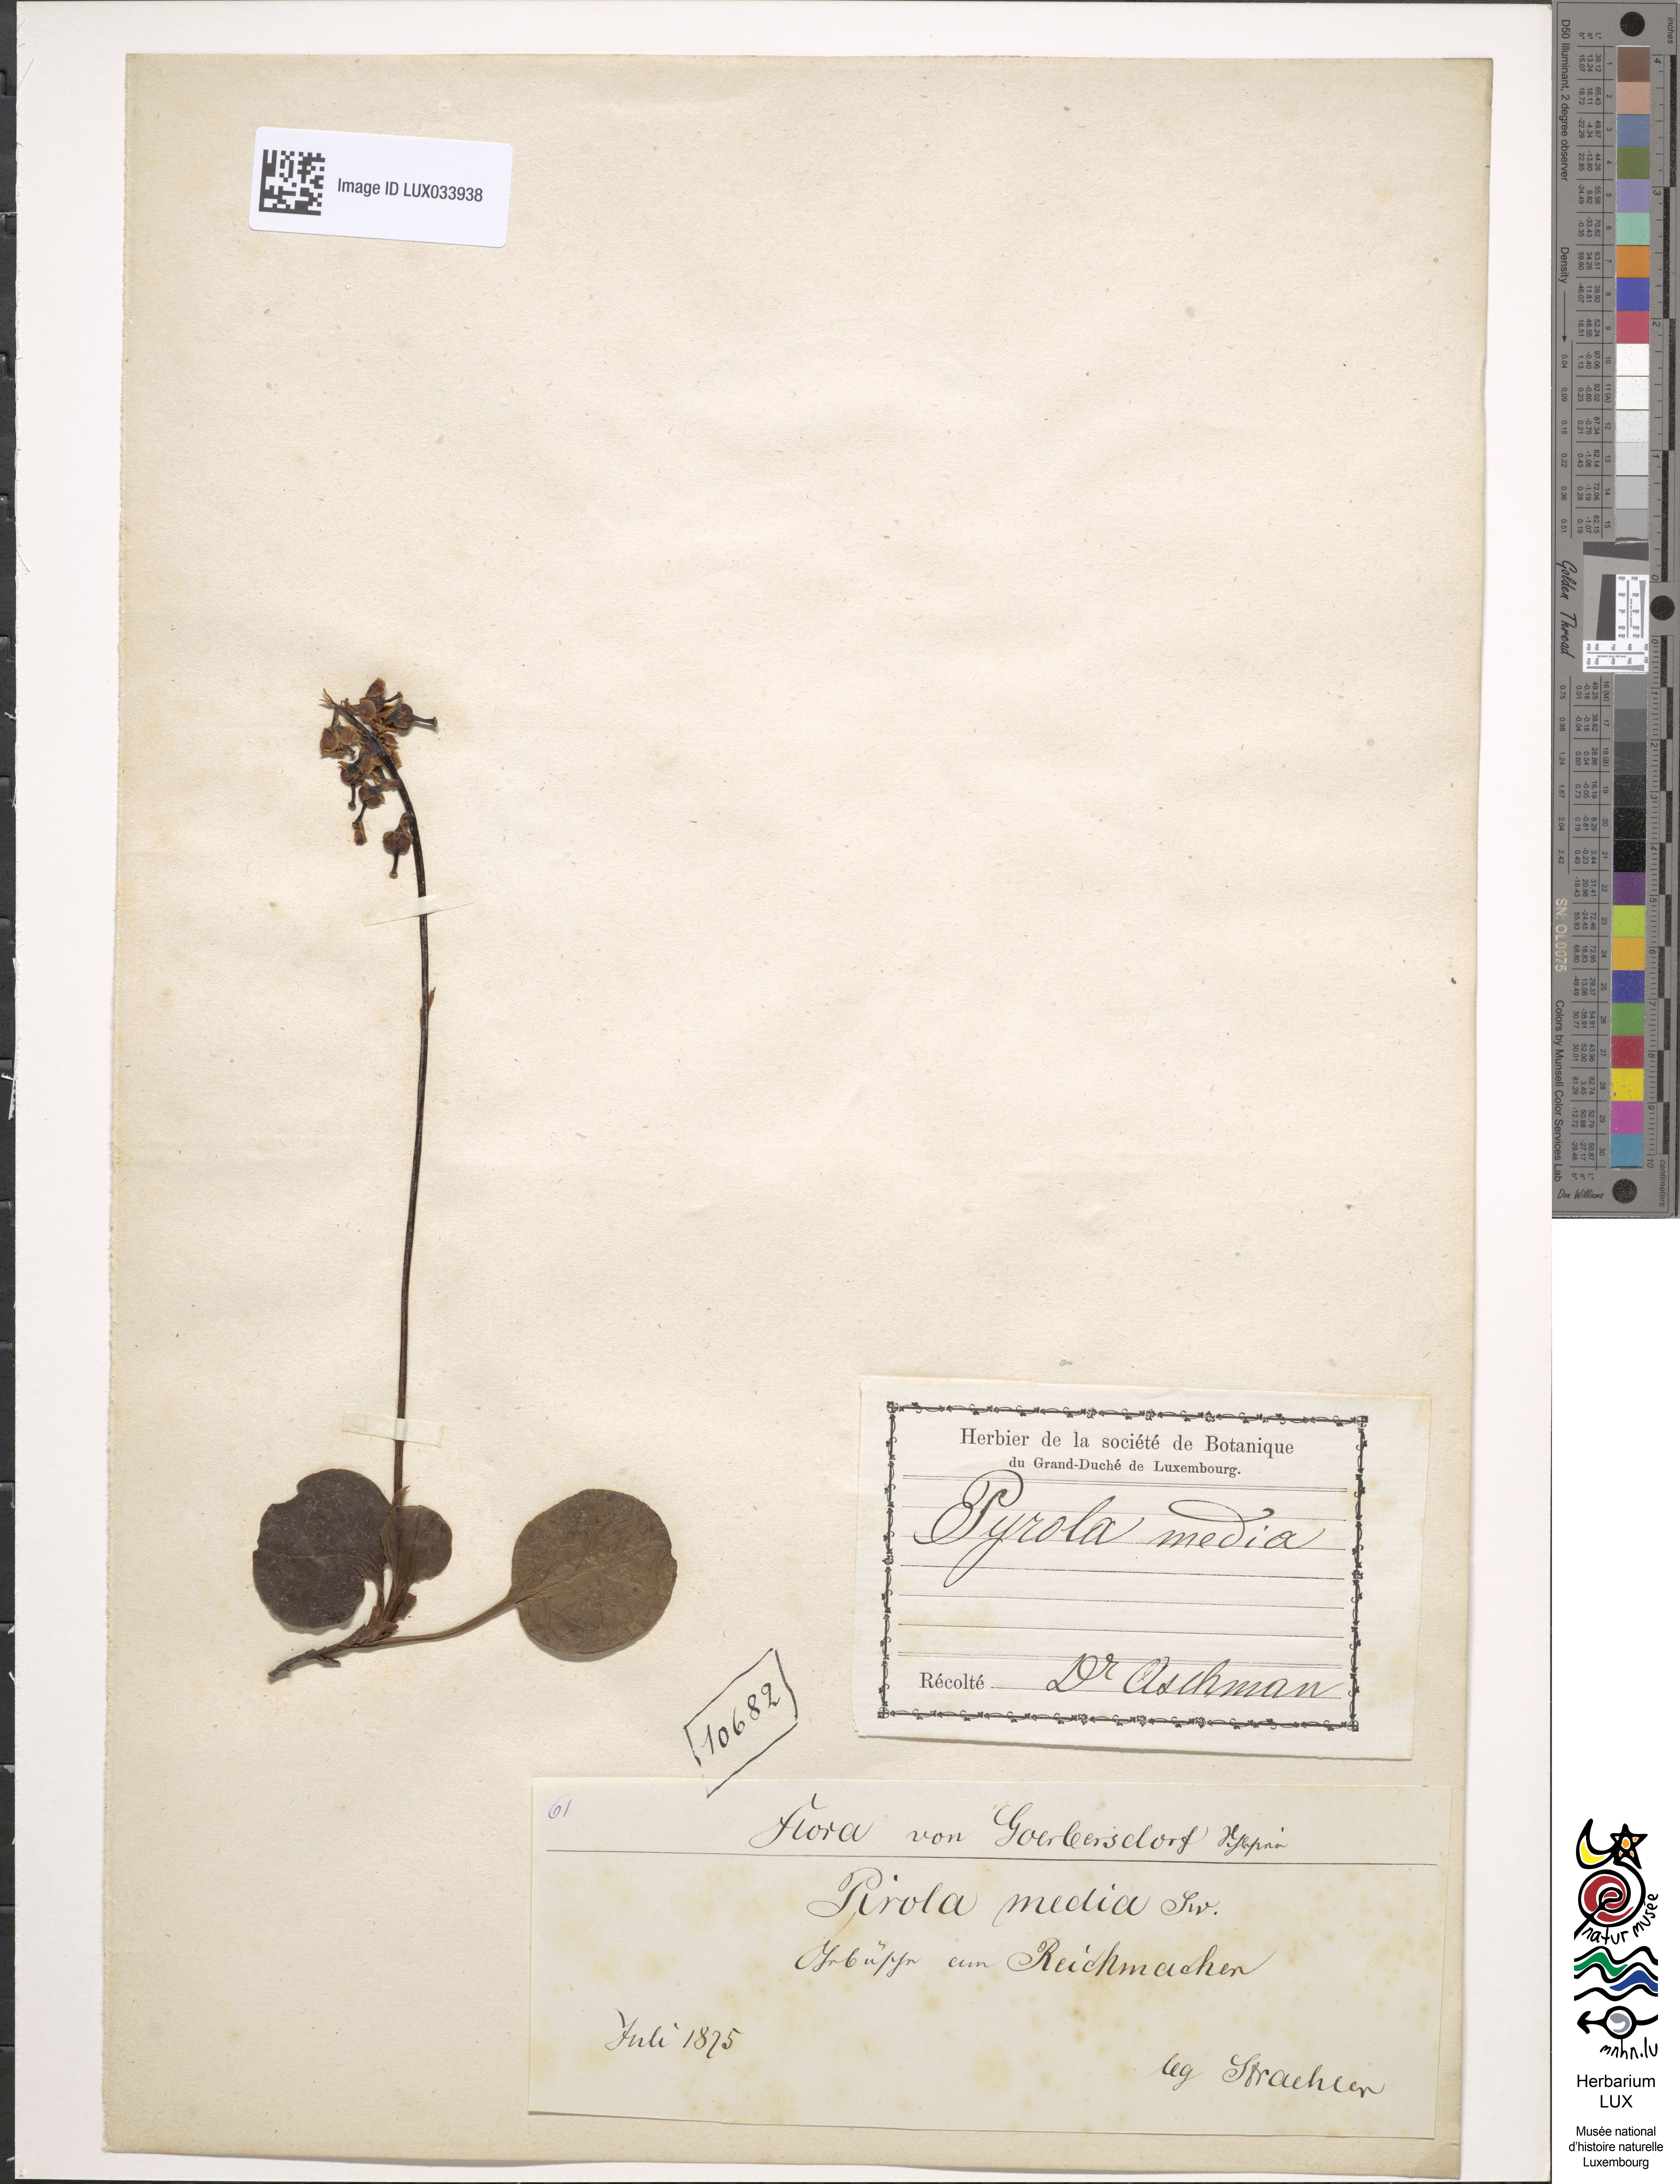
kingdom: Plantae
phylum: Tracheophyta
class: Magnoliopsida
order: Ericales
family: Ericaceae
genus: Pyrola
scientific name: Pyrola media
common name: Intermediate wintergreen
